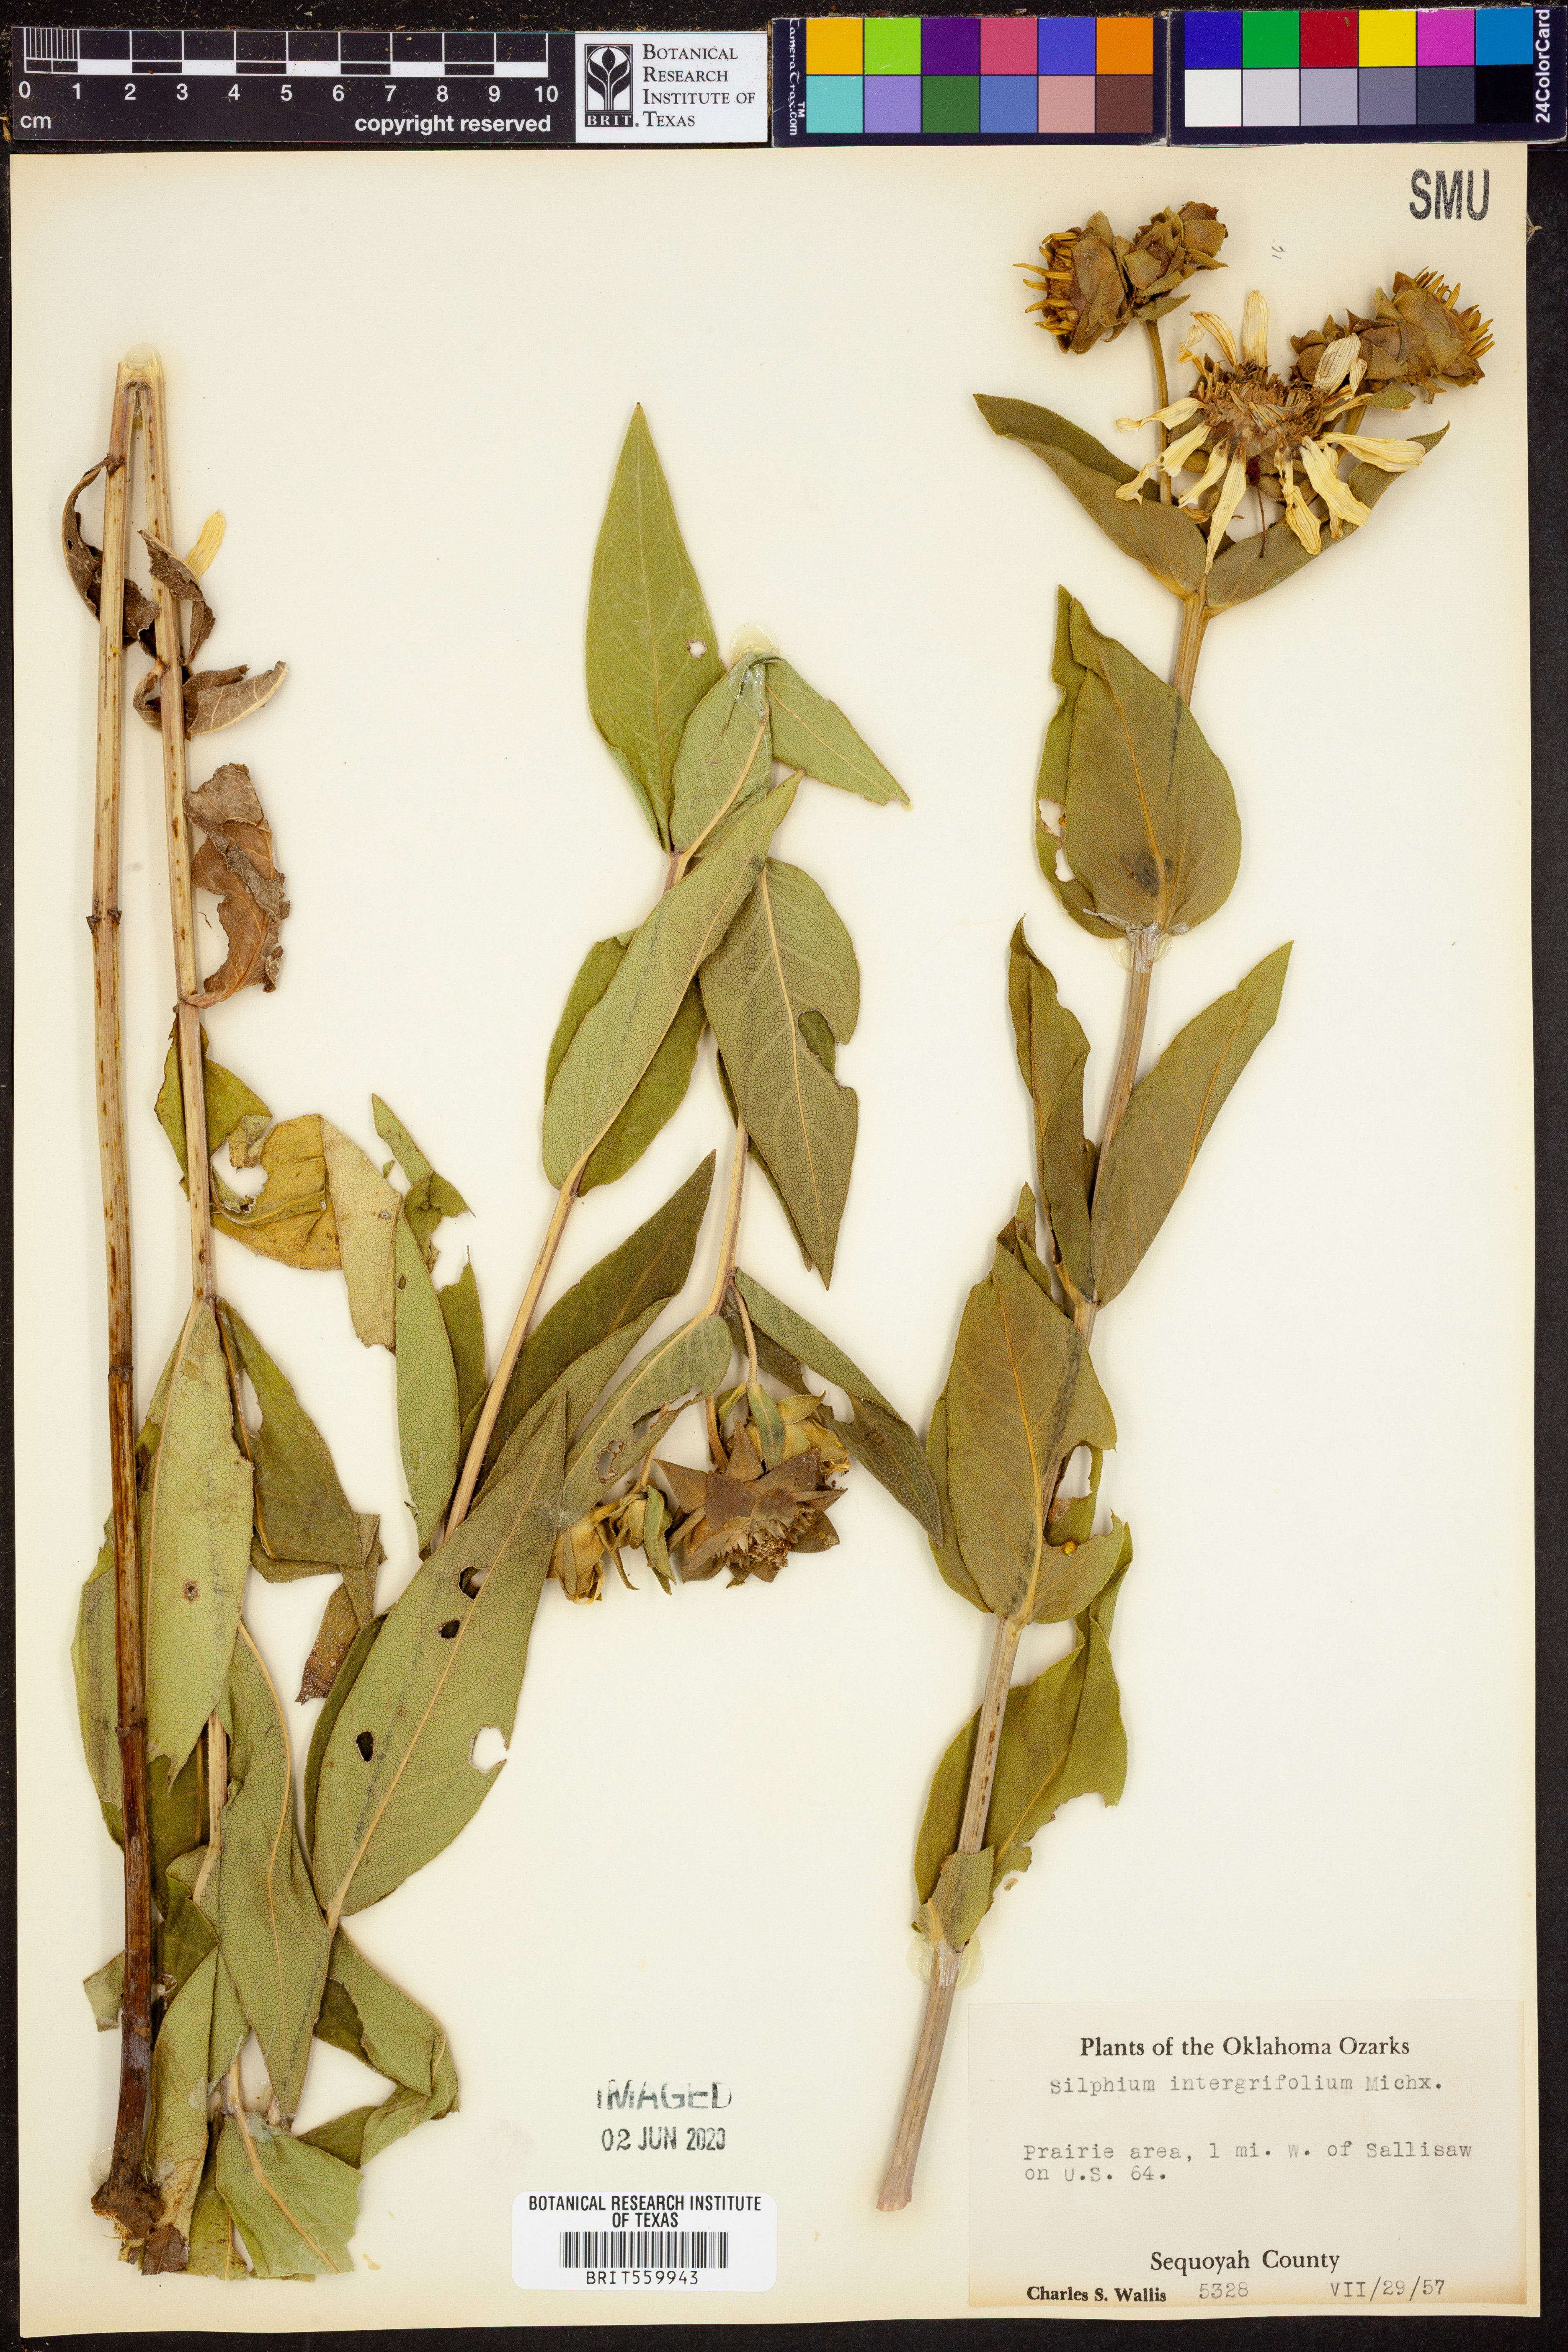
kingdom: Plantae
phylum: Tracheophyta
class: Magnoliopsida
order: Asterales
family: Asteraceae
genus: Silphium
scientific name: Silphium integrifolium
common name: Whole-leaf rosinweed
